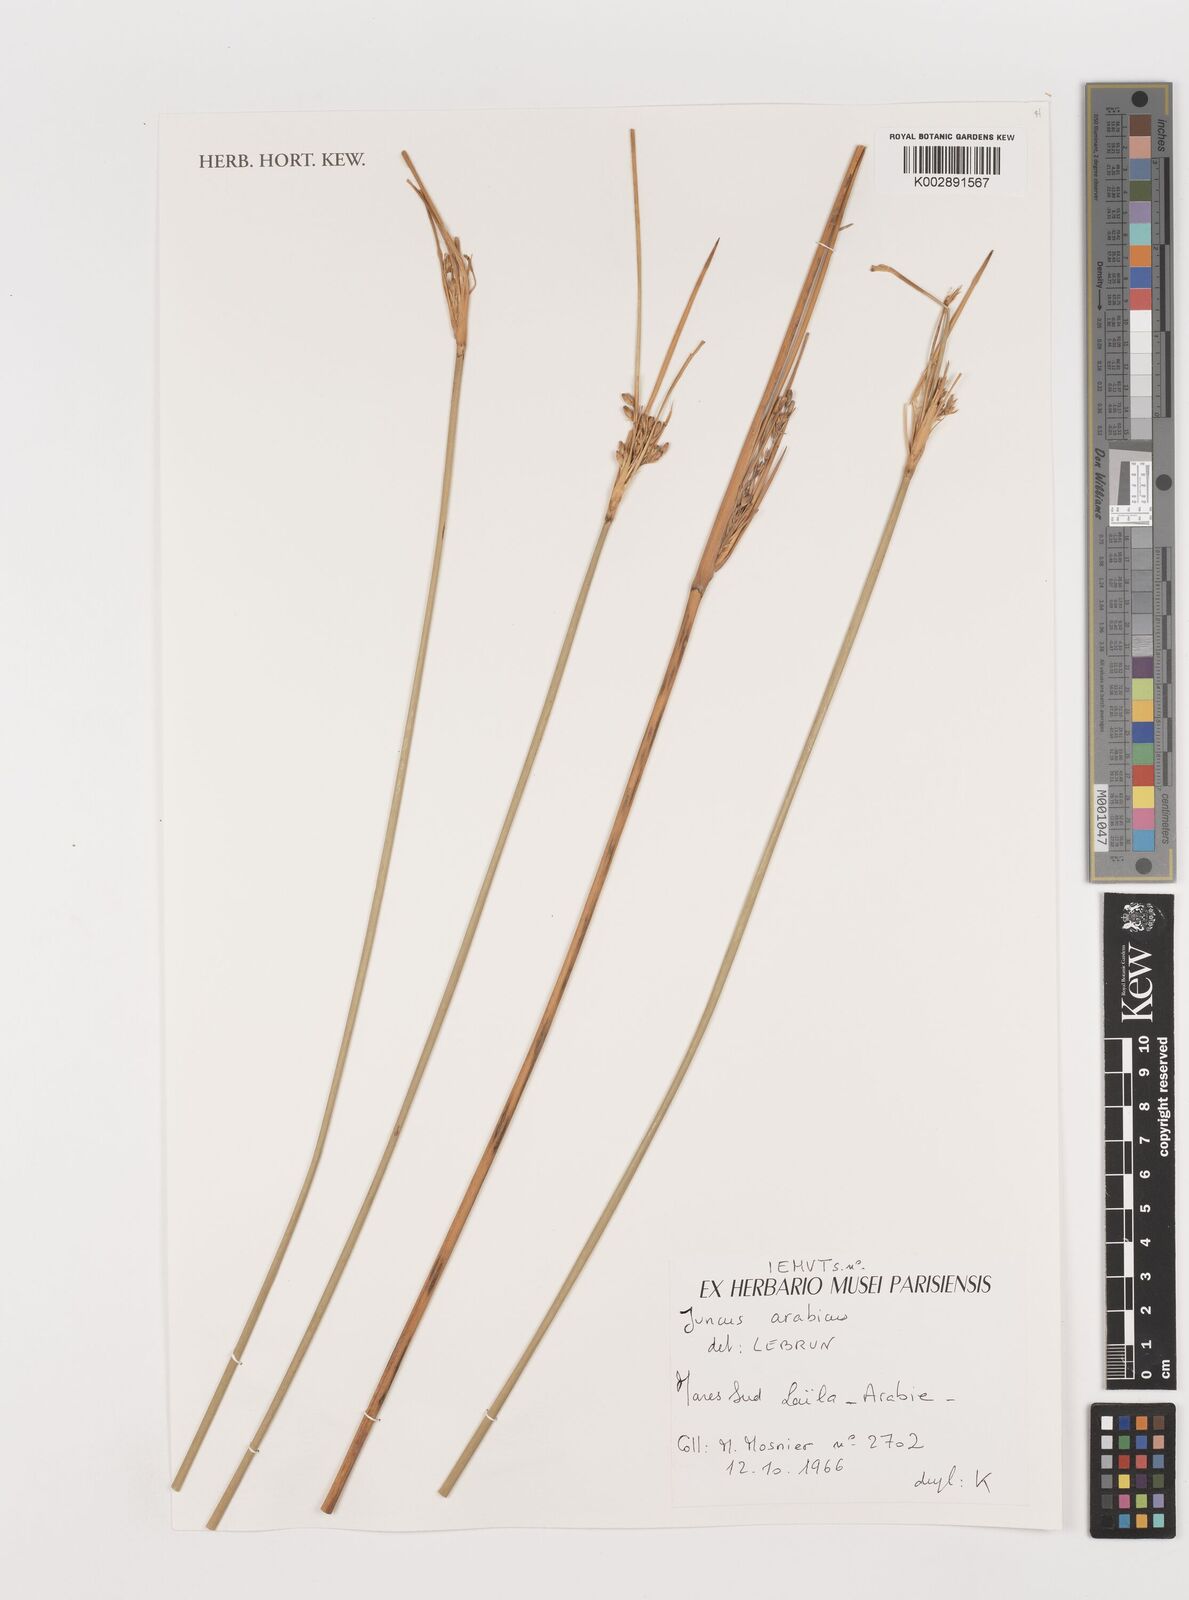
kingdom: Plantae
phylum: Tracheophyta
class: Liliopsida
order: Poales
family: Juncaceae
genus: Juncus
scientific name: Juncus rigidus
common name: Hard sea rush
